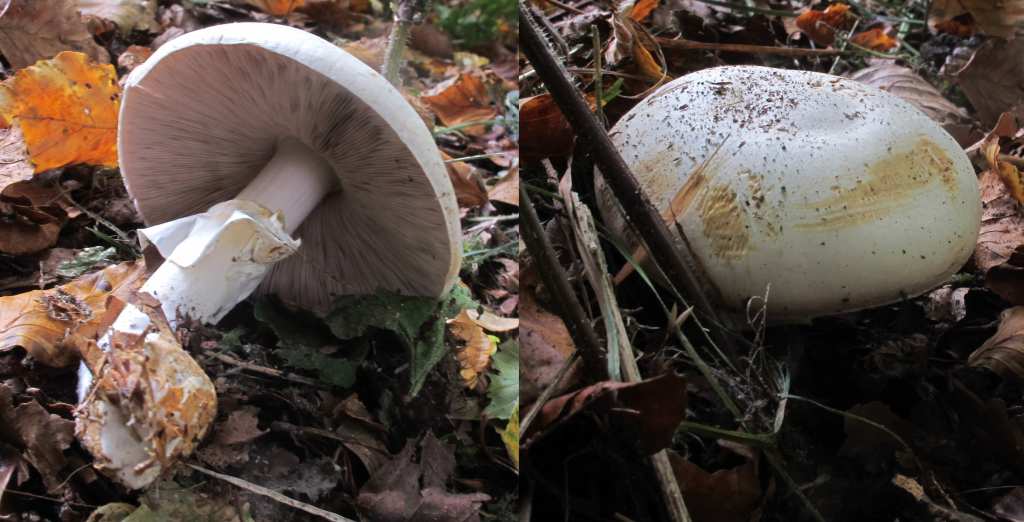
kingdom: Fungi
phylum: Basidiomycota
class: Agaricomycetes
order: Agaricales
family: Agaricaceae
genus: Agaricus
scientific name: Agaricus sylvicola
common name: skiveknoldet champignon
